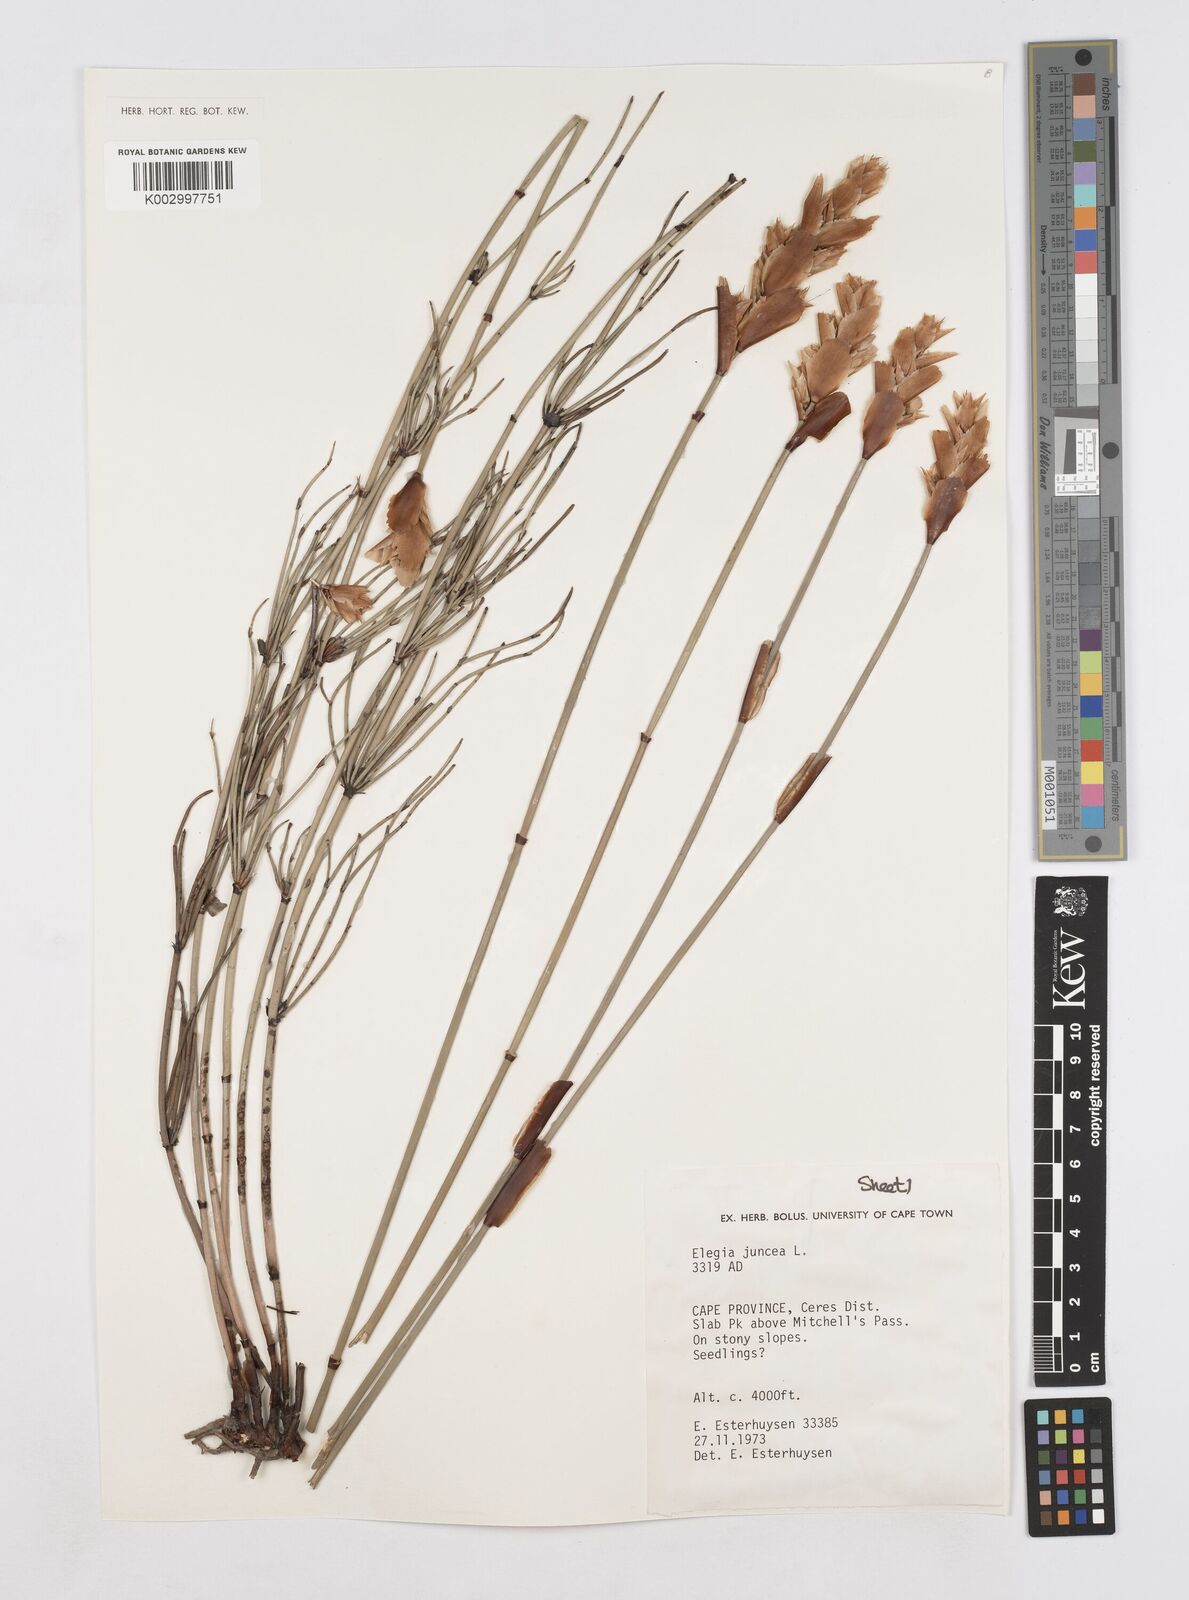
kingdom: Plantae
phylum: Tracheophyta
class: Liliopsida
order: Poales
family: Restionaceae
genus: Elegia
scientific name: Elegia juncea
